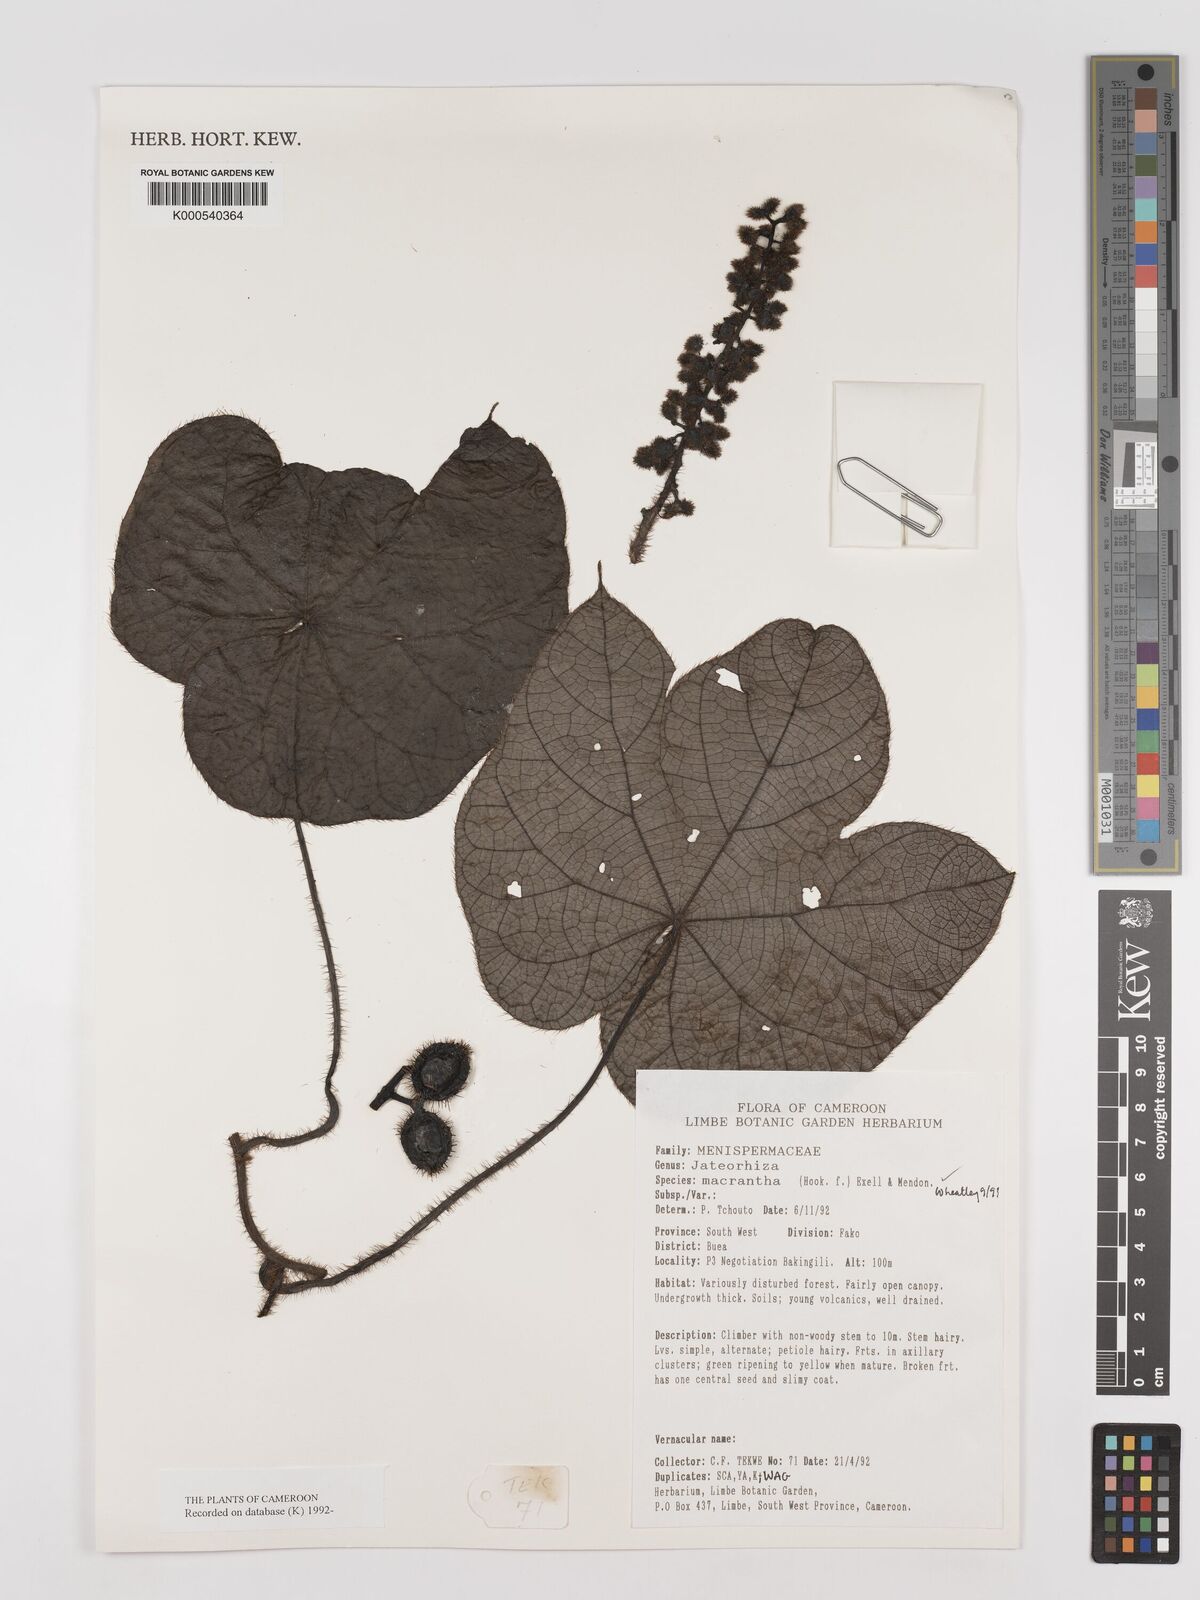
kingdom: Plantae
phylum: Tracheophyta
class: Magnoliopsida
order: Ranunculales
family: Menispermaceae
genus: Jateorhiza
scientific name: Jateorhiza
